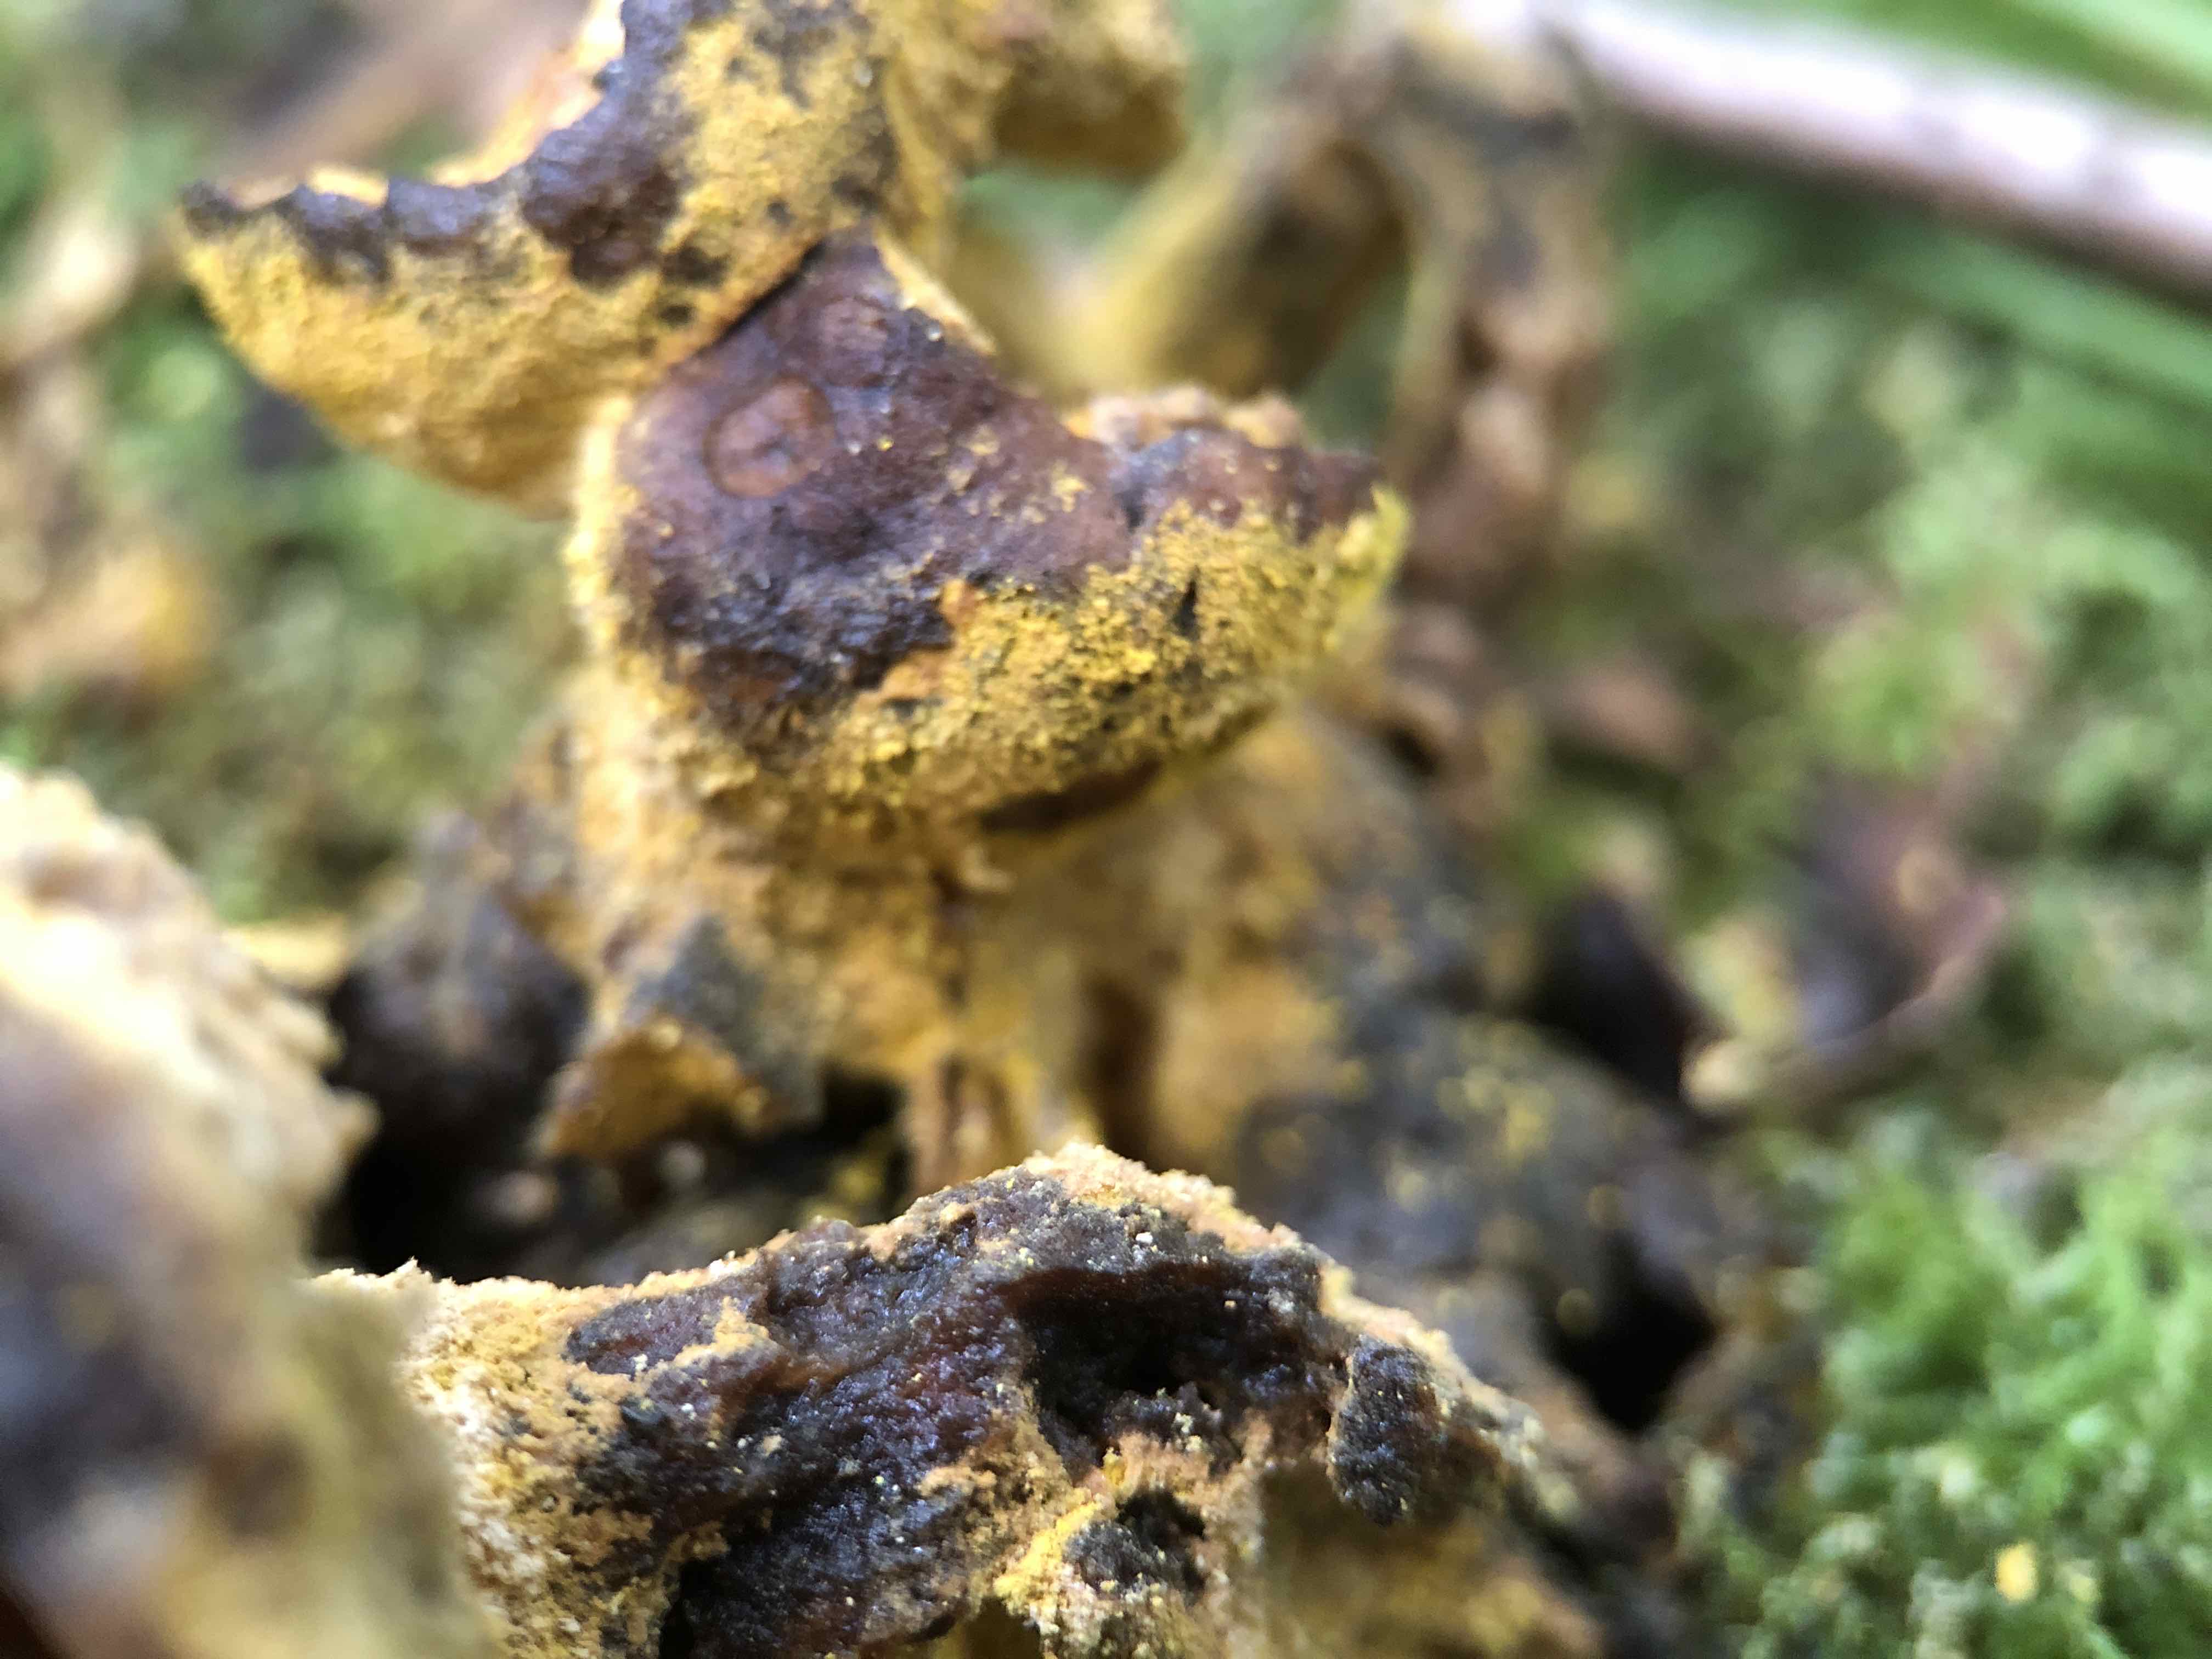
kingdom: Fungi
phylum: Ascomycota
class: Sordariomycetes
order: Hypocreales
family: Hypocreaceae
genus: Hypomyces
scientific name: Hypomyces microspermus
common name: dværgrørhat-snylteskorpe
